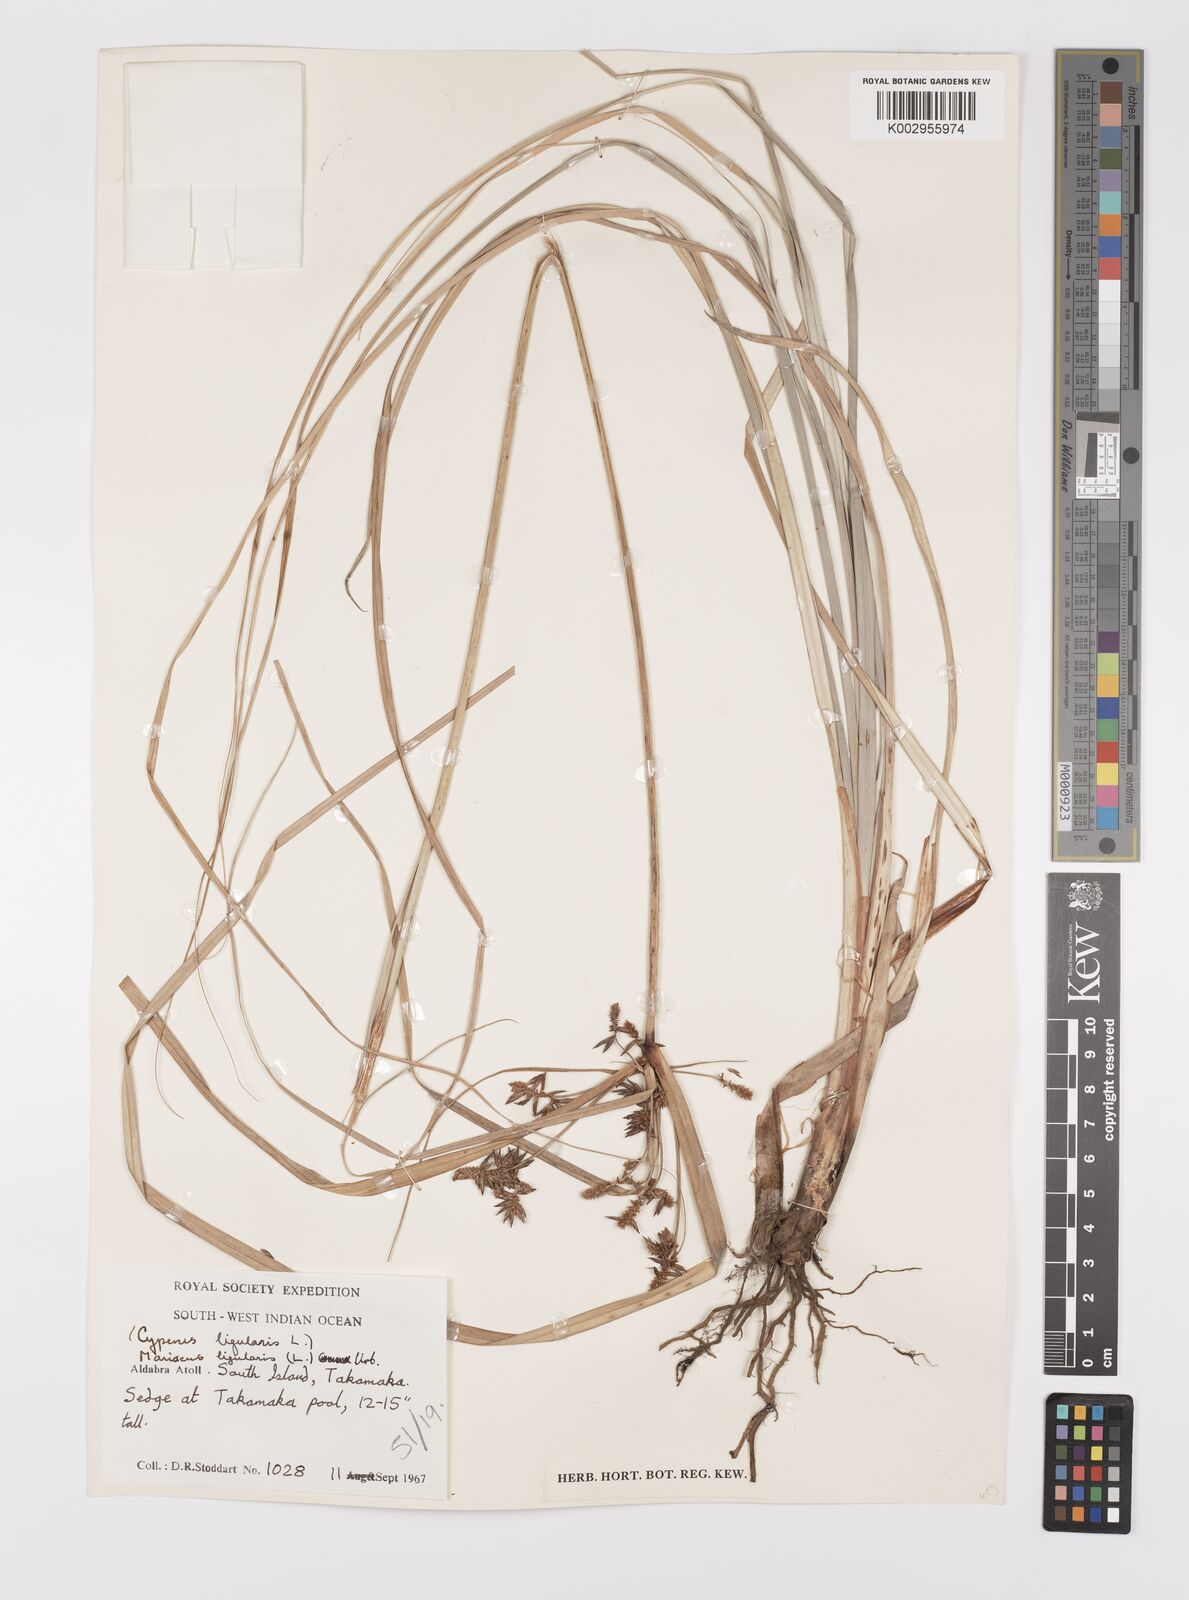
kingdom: Plantae
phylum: Tracheophyta
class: Liliopsida
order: Poales
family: Cyperaceae
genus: Cyperus
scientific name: Cyperus ligularis
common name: Swamp flat sedge
